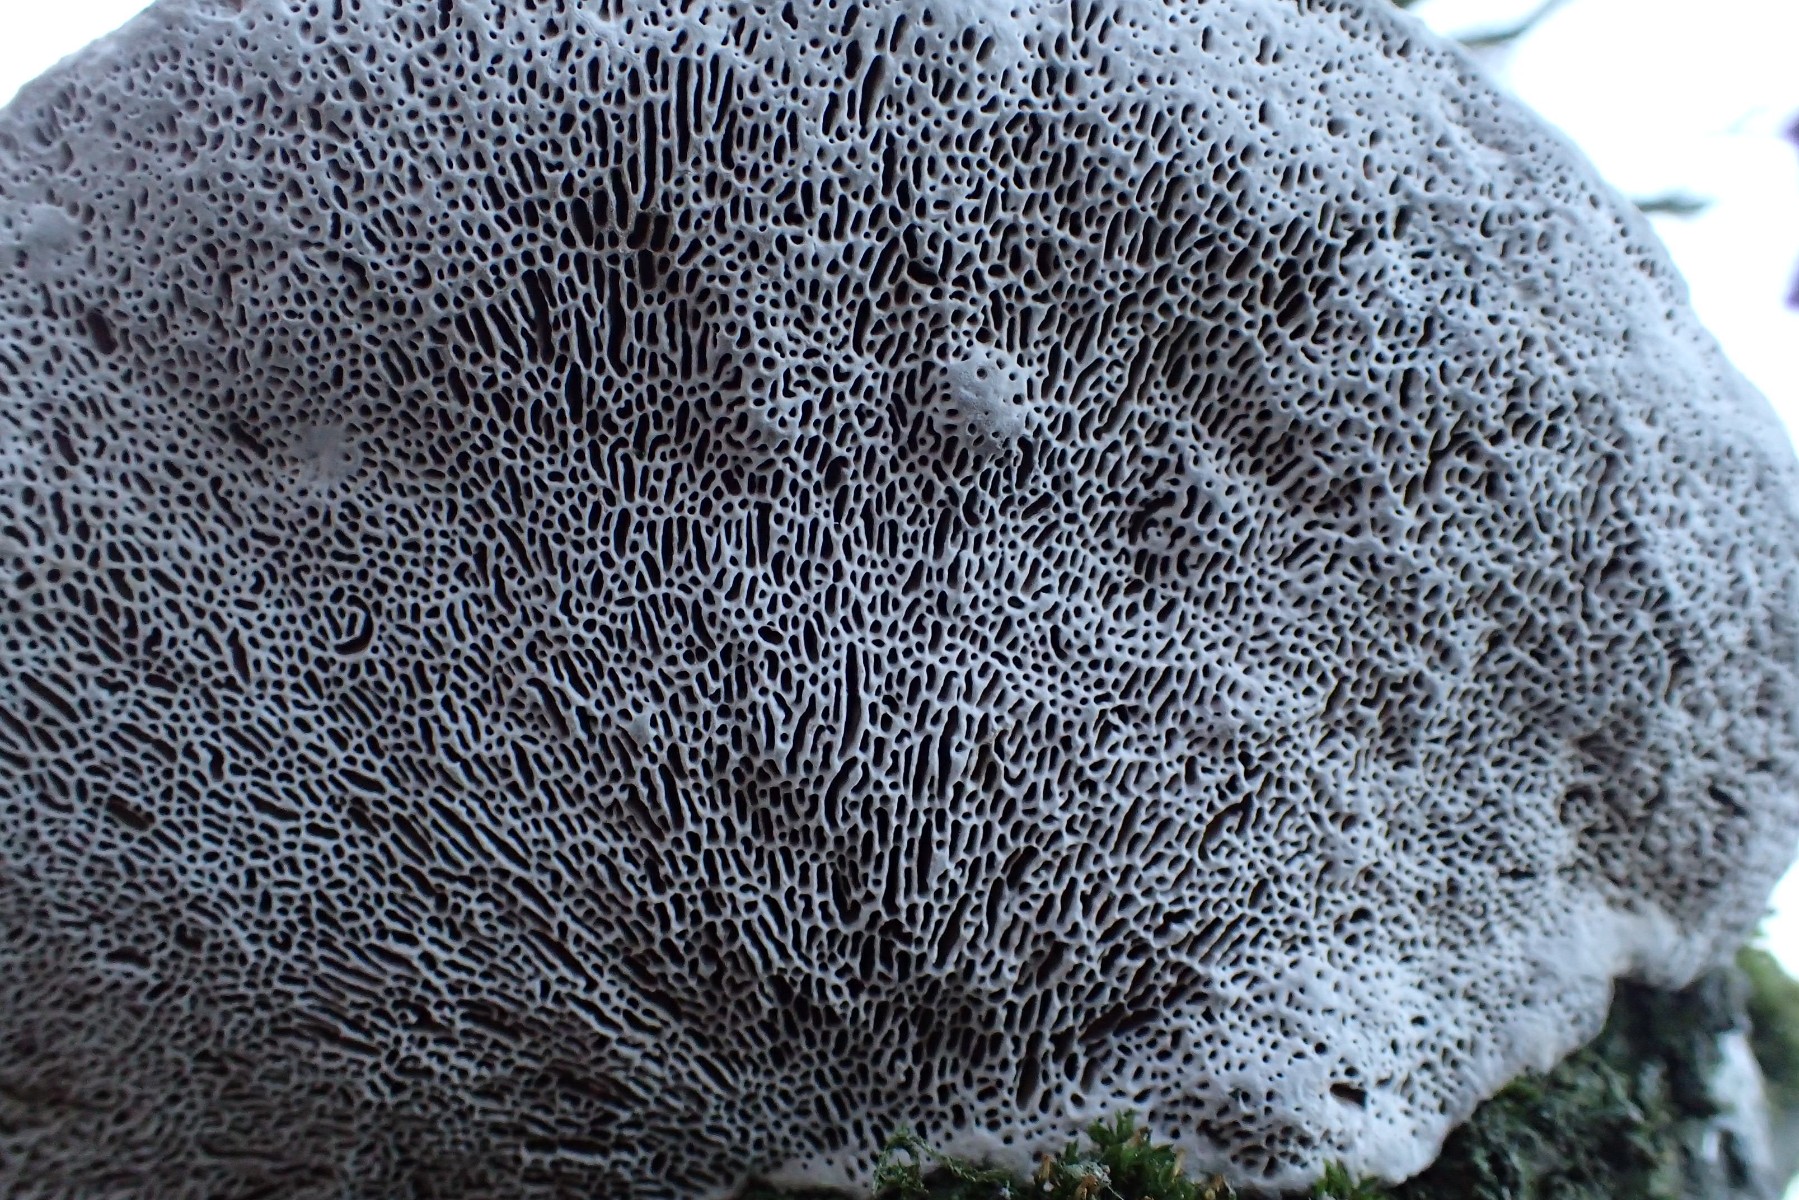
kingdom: Fungi
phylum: Basidiomycota
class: Agaricomycetes
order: Polyporales
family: Polyporaceae
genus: Daedaleopsis
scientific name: Daedaleopsis confragosa
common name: rødmende læderporesvamp
